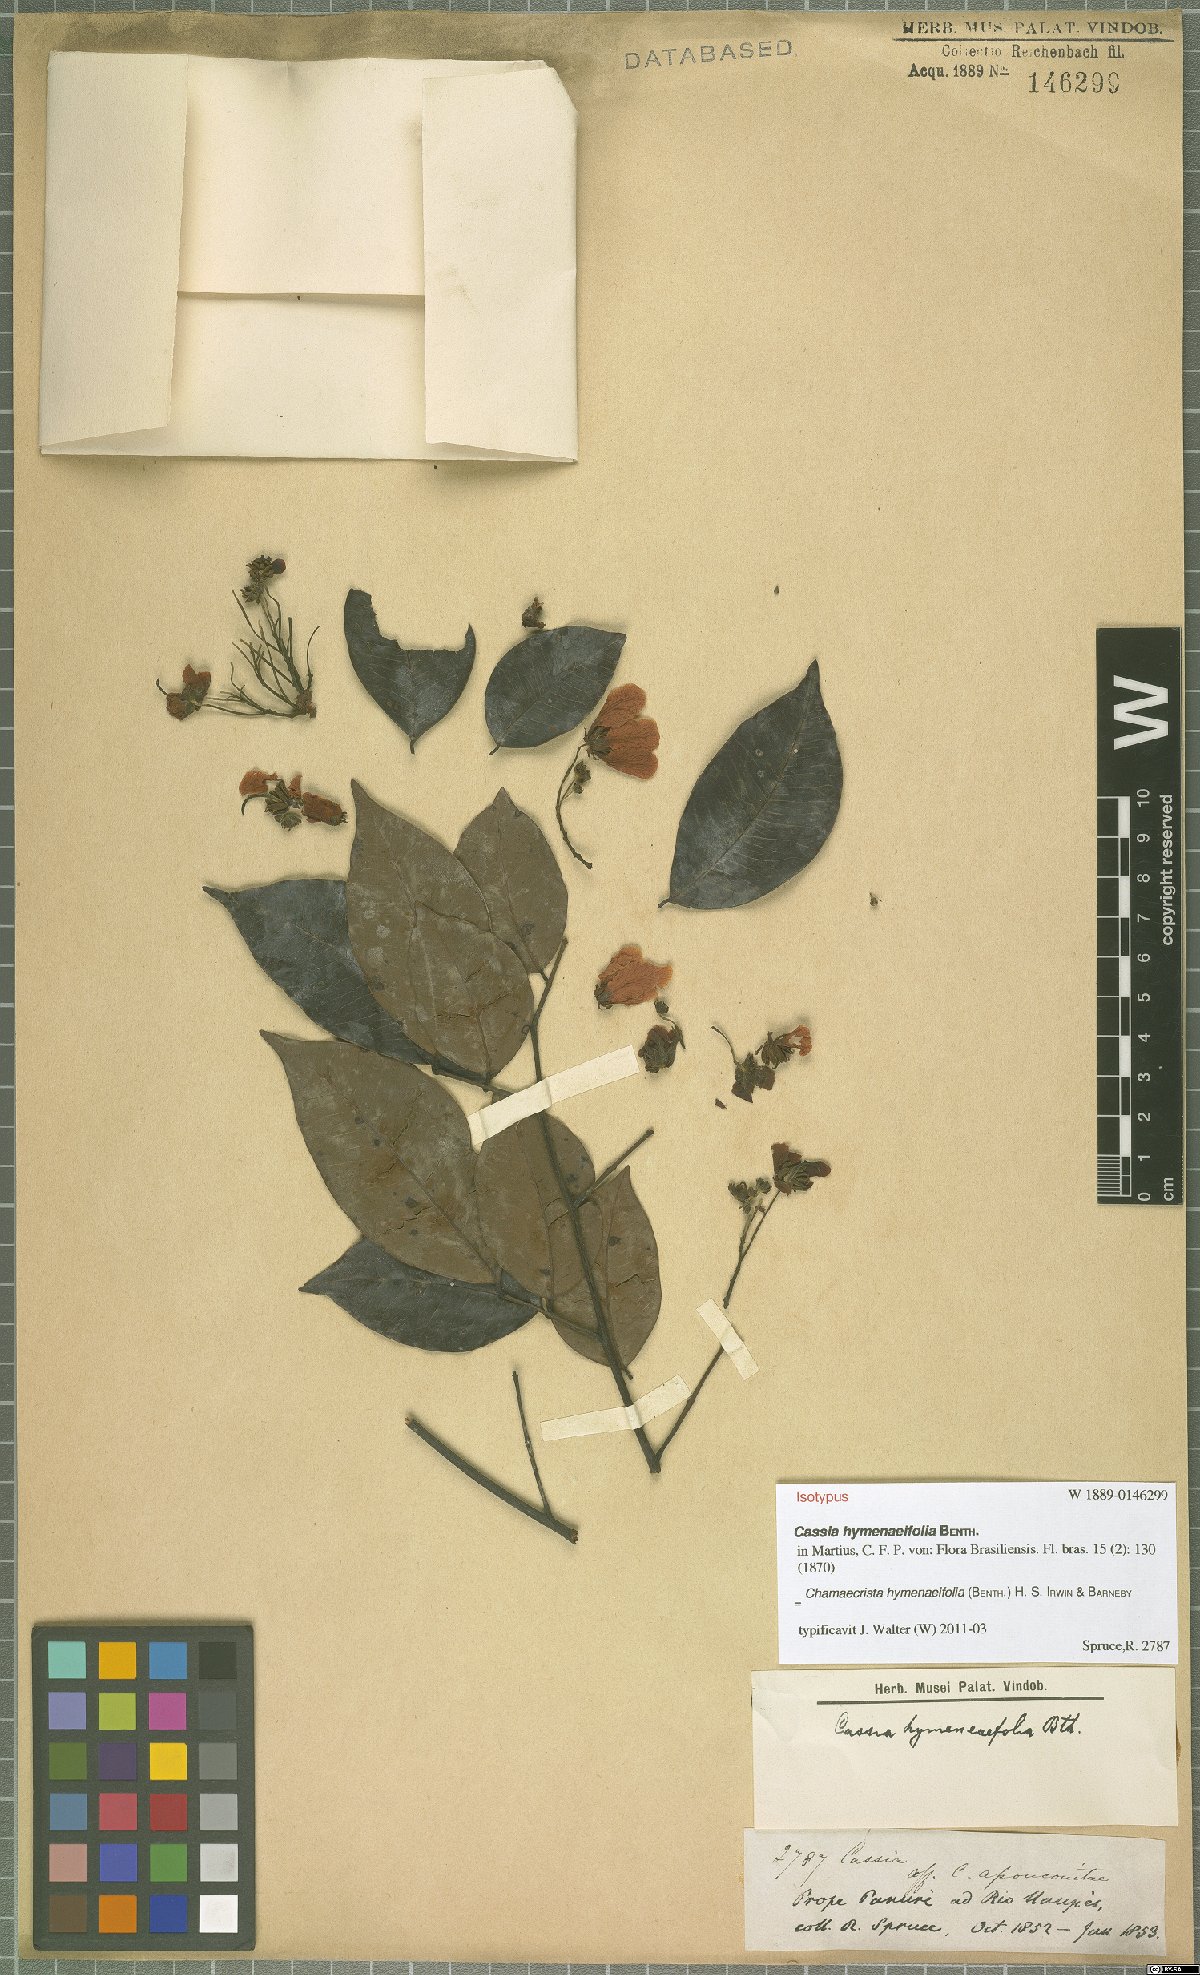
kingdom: Plantae
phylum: Tracheophyta
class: Magnoliopsida
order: Fabales
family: Fabaceae
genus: Chamaecrista
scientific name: Chamaecrista hymenaeifolia
